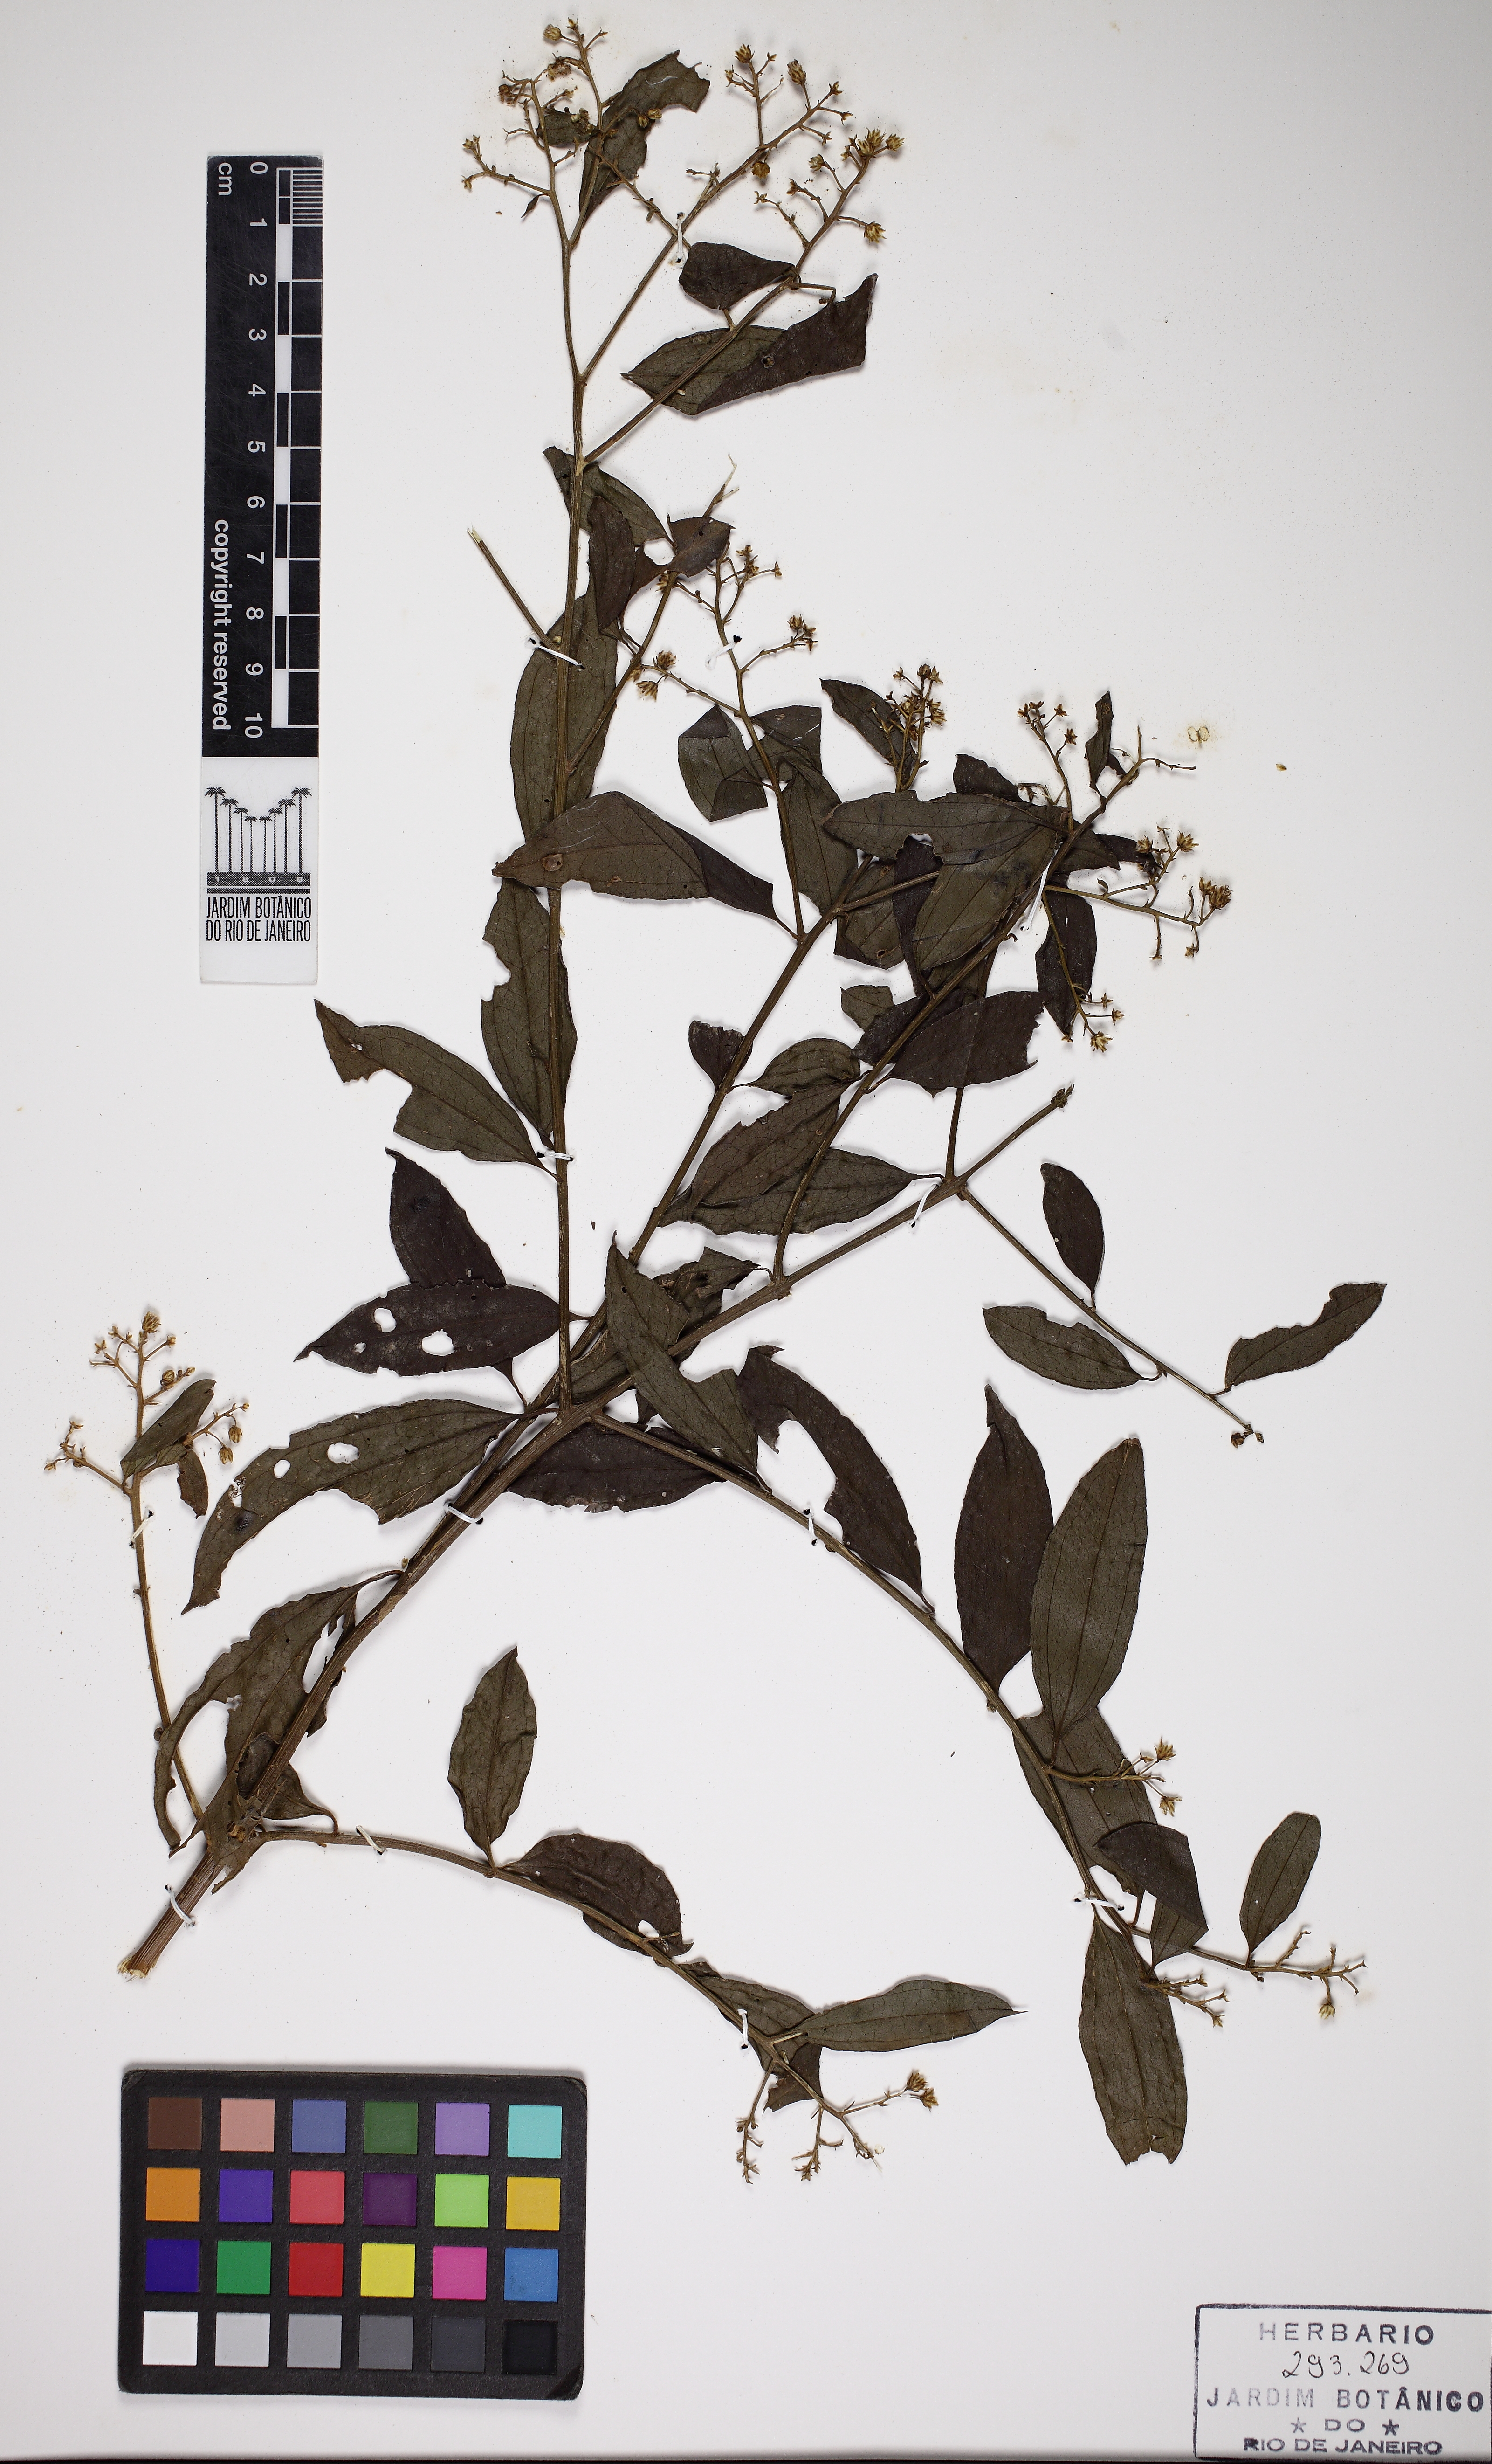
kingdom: Plantae
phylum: Tracheophyta
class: Magnoliopsida
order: Asterales
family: Asteraceae
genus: Baccharis
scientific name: Baccharis trinervis
